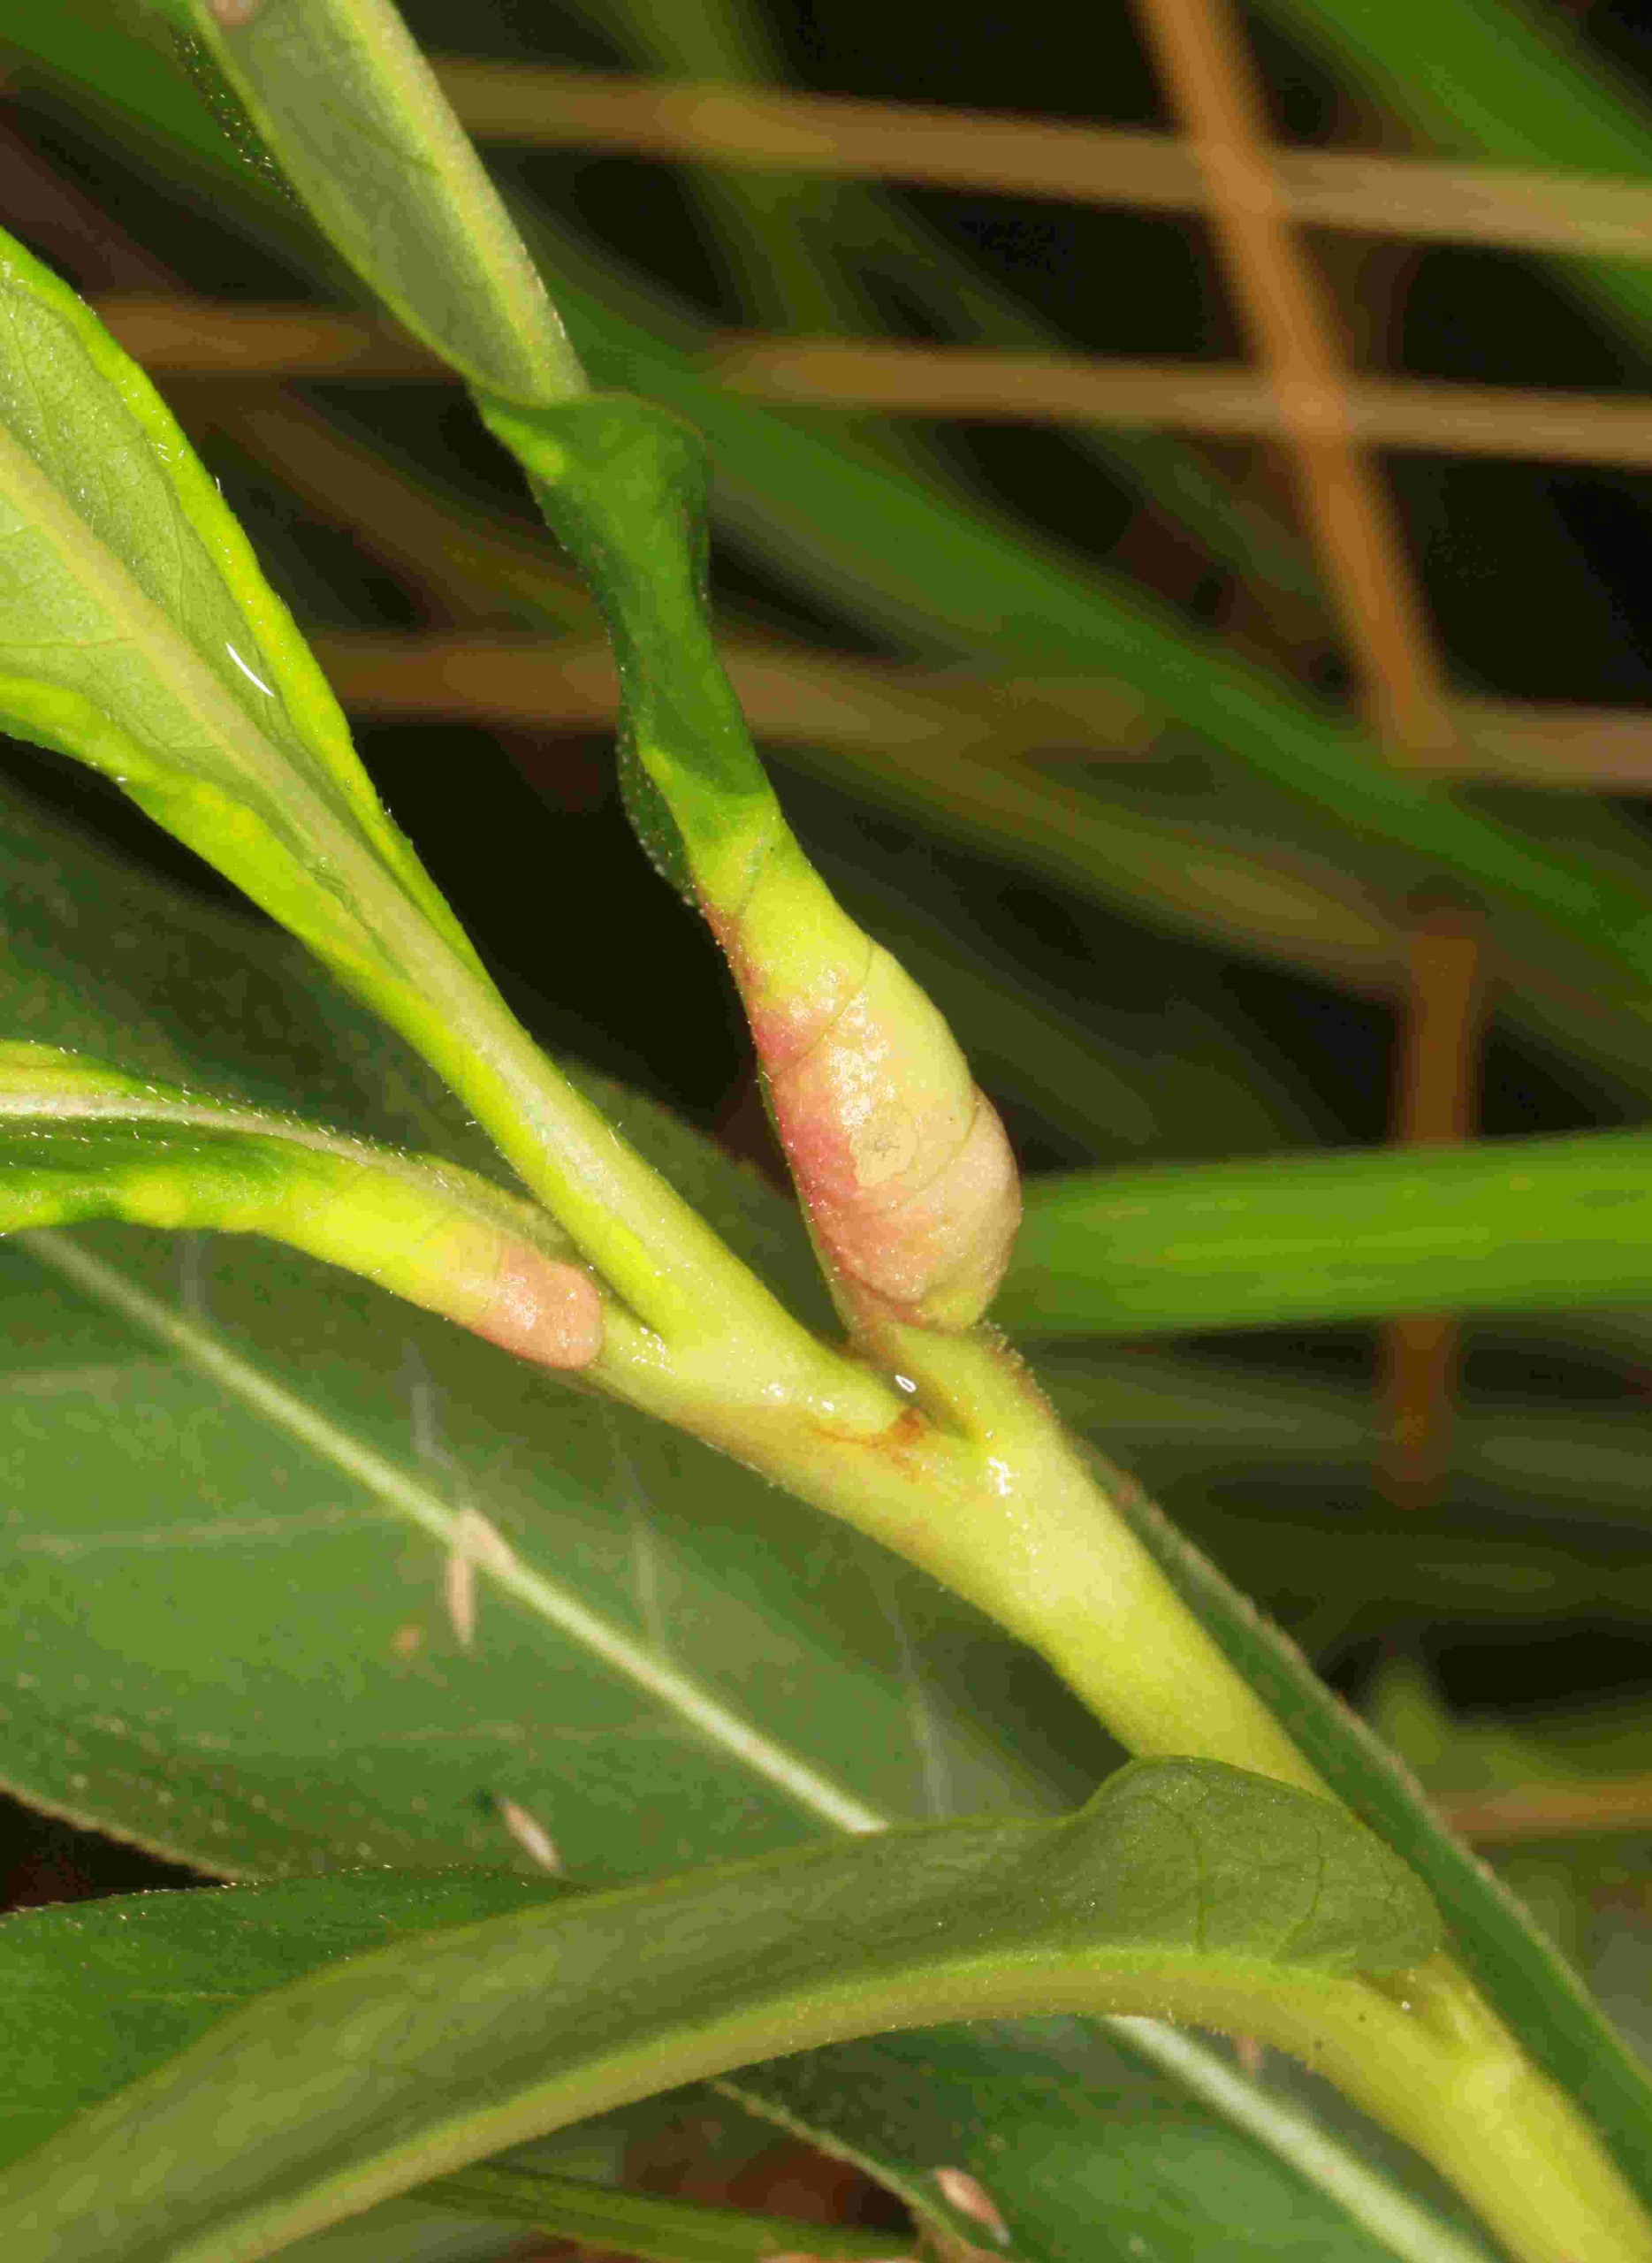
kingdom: Animalia
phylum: Arthropoda
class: Insecta
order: Diptera
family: Cecidomyiidae
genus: Wachtliella
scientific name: Wachtliella persicariae
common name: Pileurtgalmyg
